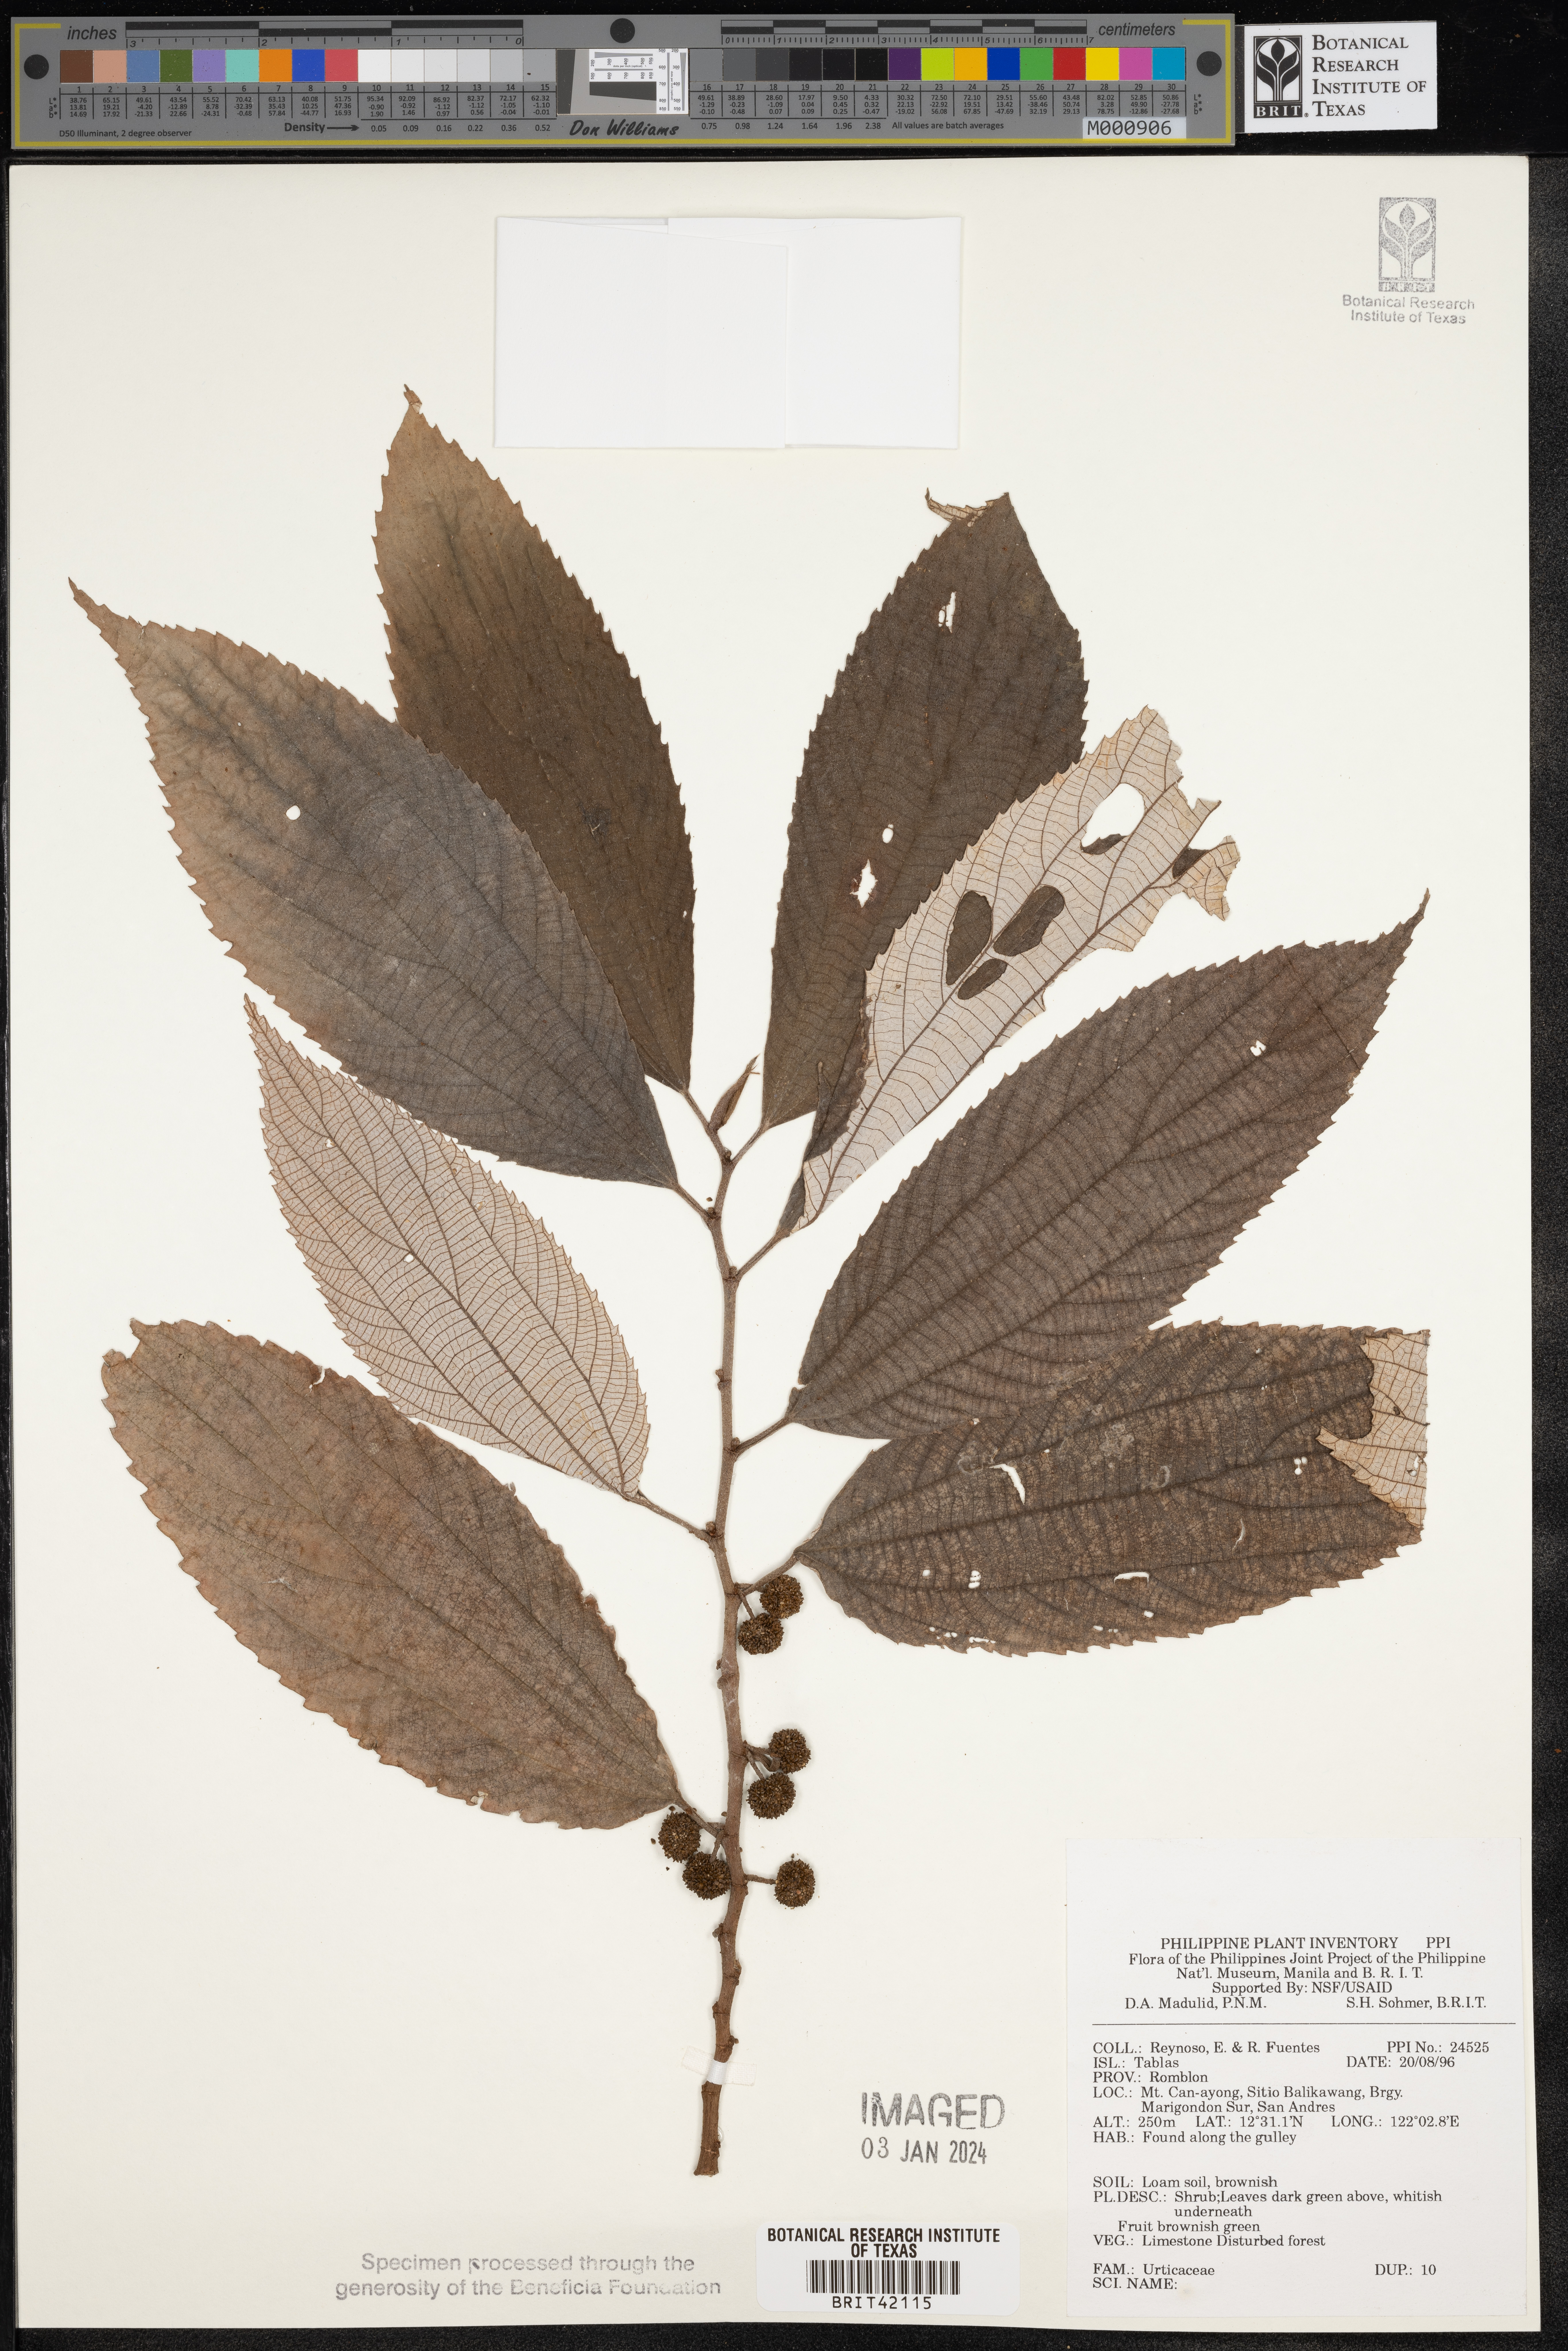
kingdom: Plantae
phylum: Tracheophyta
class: Magnoliopsida
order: Rosales
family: Urticaceae
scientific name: Urticaceae
